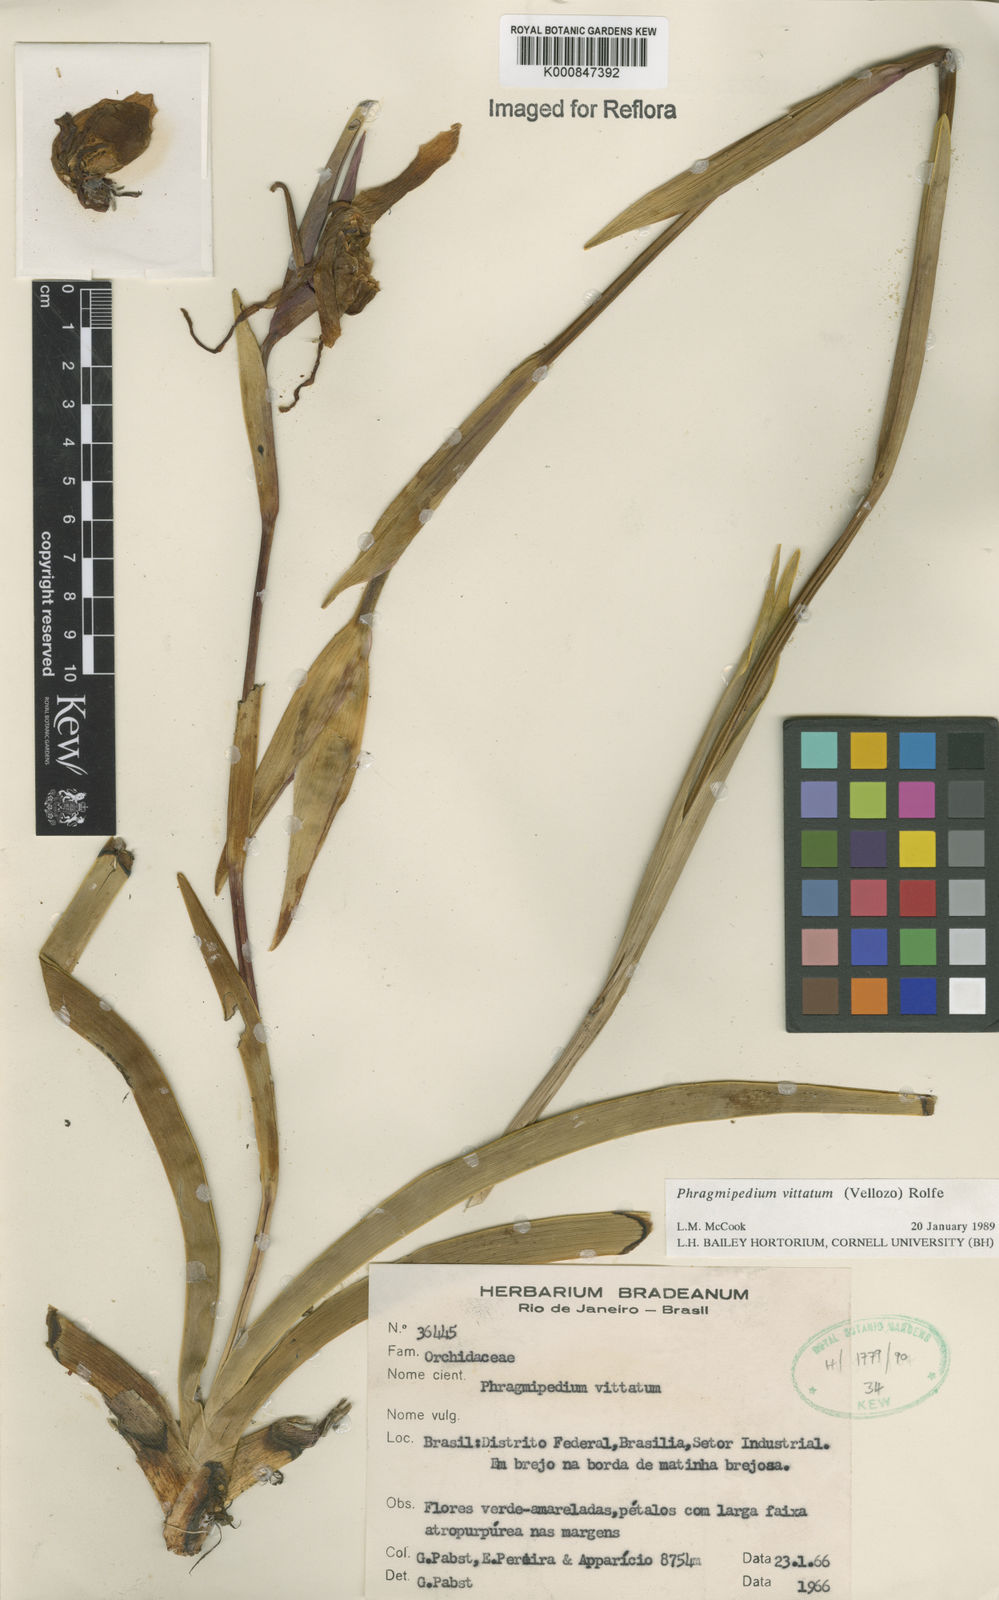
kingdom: Plantae
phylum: Tracheophyta
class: Liliopsida
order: Asparagales
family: Orchidaceae
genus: Phragmipedium
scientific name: Phragmipedium vittatum
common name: Striped phragmipedium
